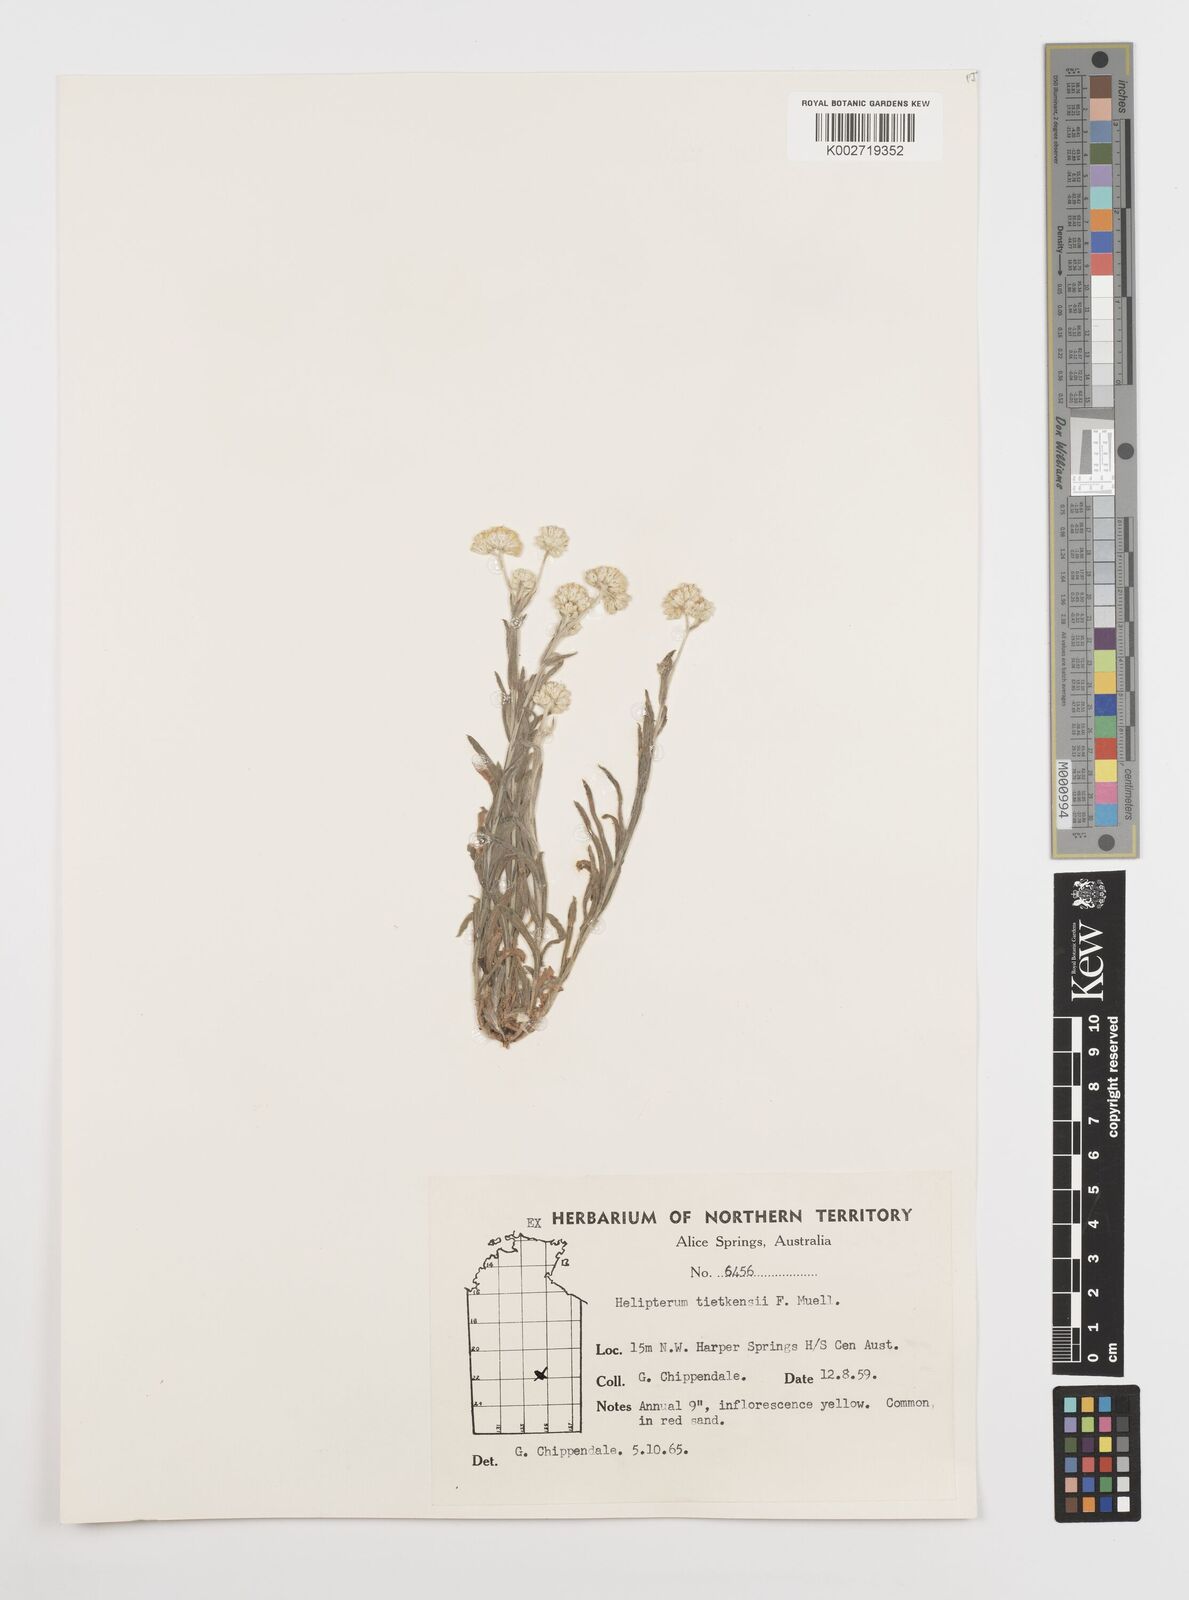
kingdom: Plantae
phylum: Tracheophyta
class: Magnoliopsida
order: Asterales
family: Asteraceae
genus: Rhodanthe
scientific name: Rhodanthe tietkensii
